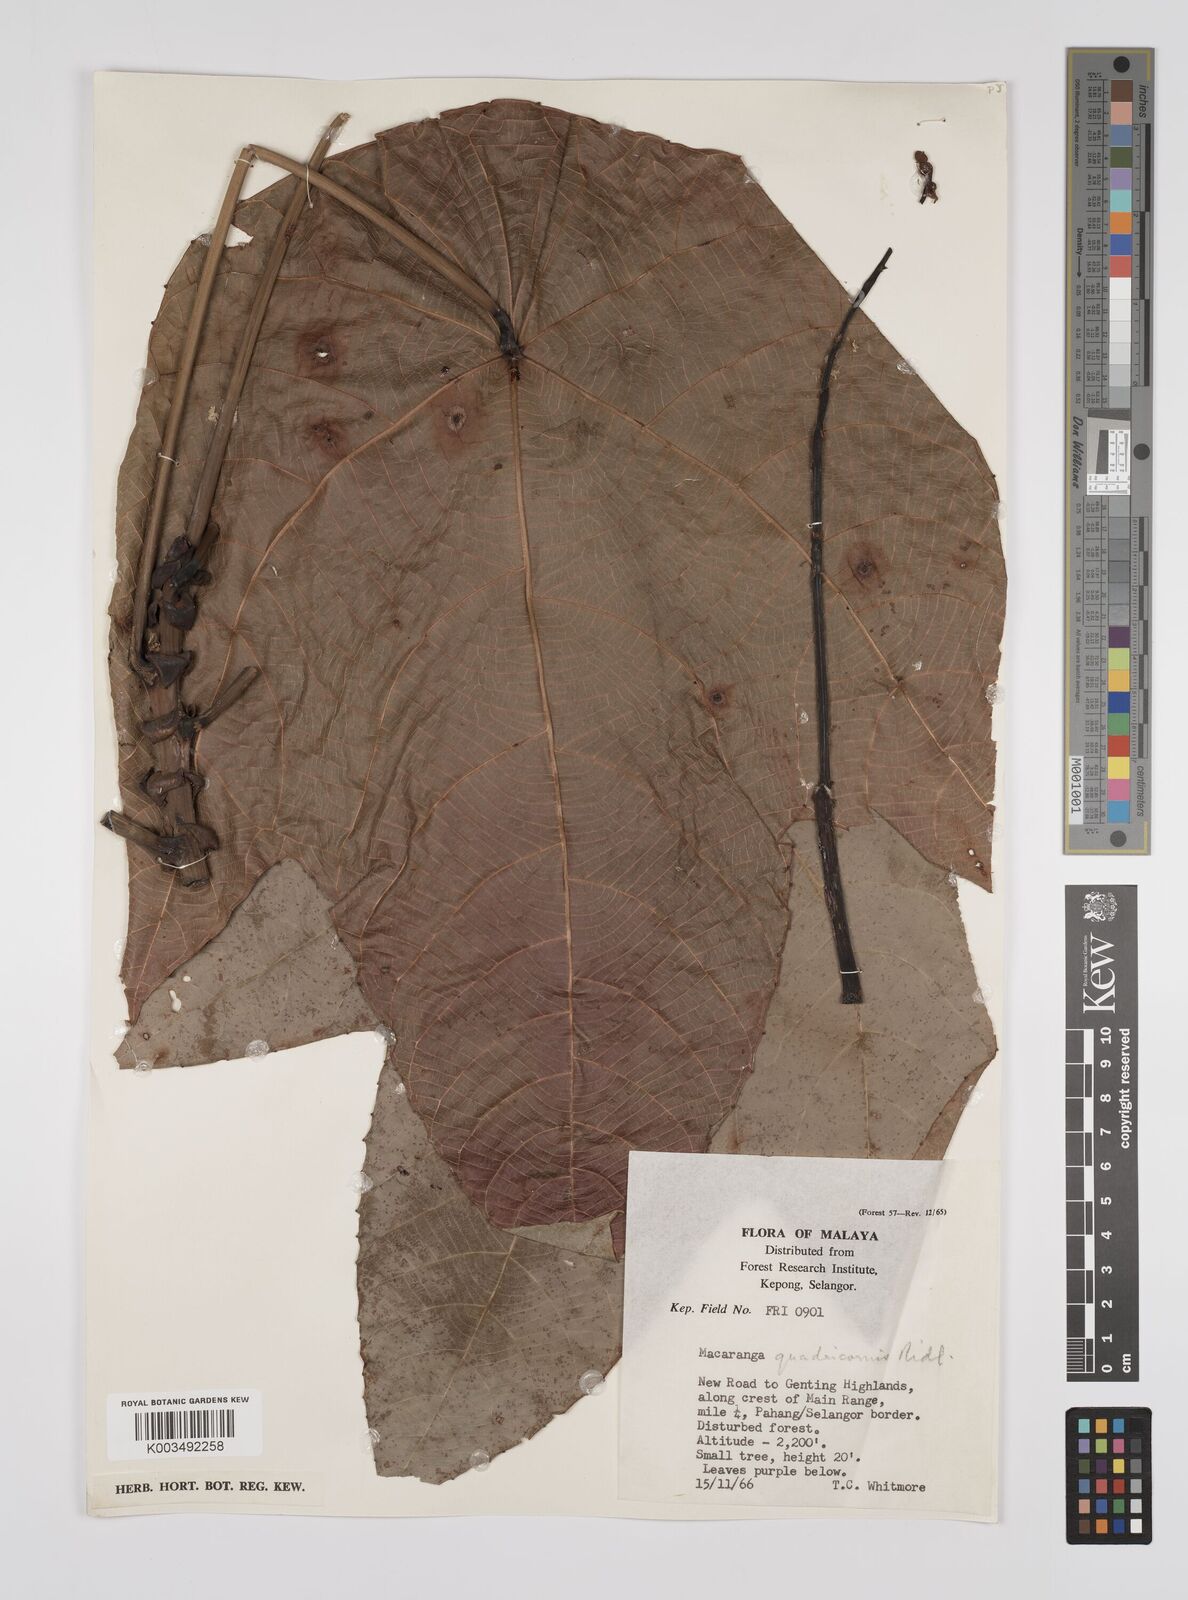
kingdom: Plantae
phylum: Tracheophyta
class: Magnoliopsida
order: Malpighiales
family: Euphorbiaceae
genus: Macaranga
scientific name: Macaranga triloba
